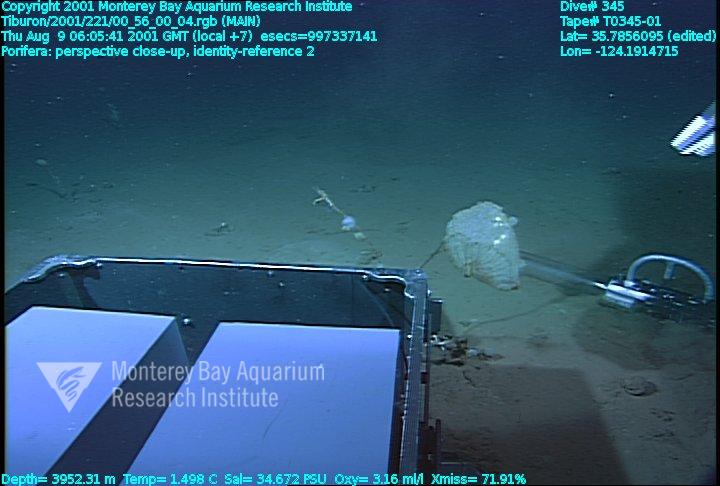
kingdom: Animalia
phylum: Porifera
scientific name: Porifera
